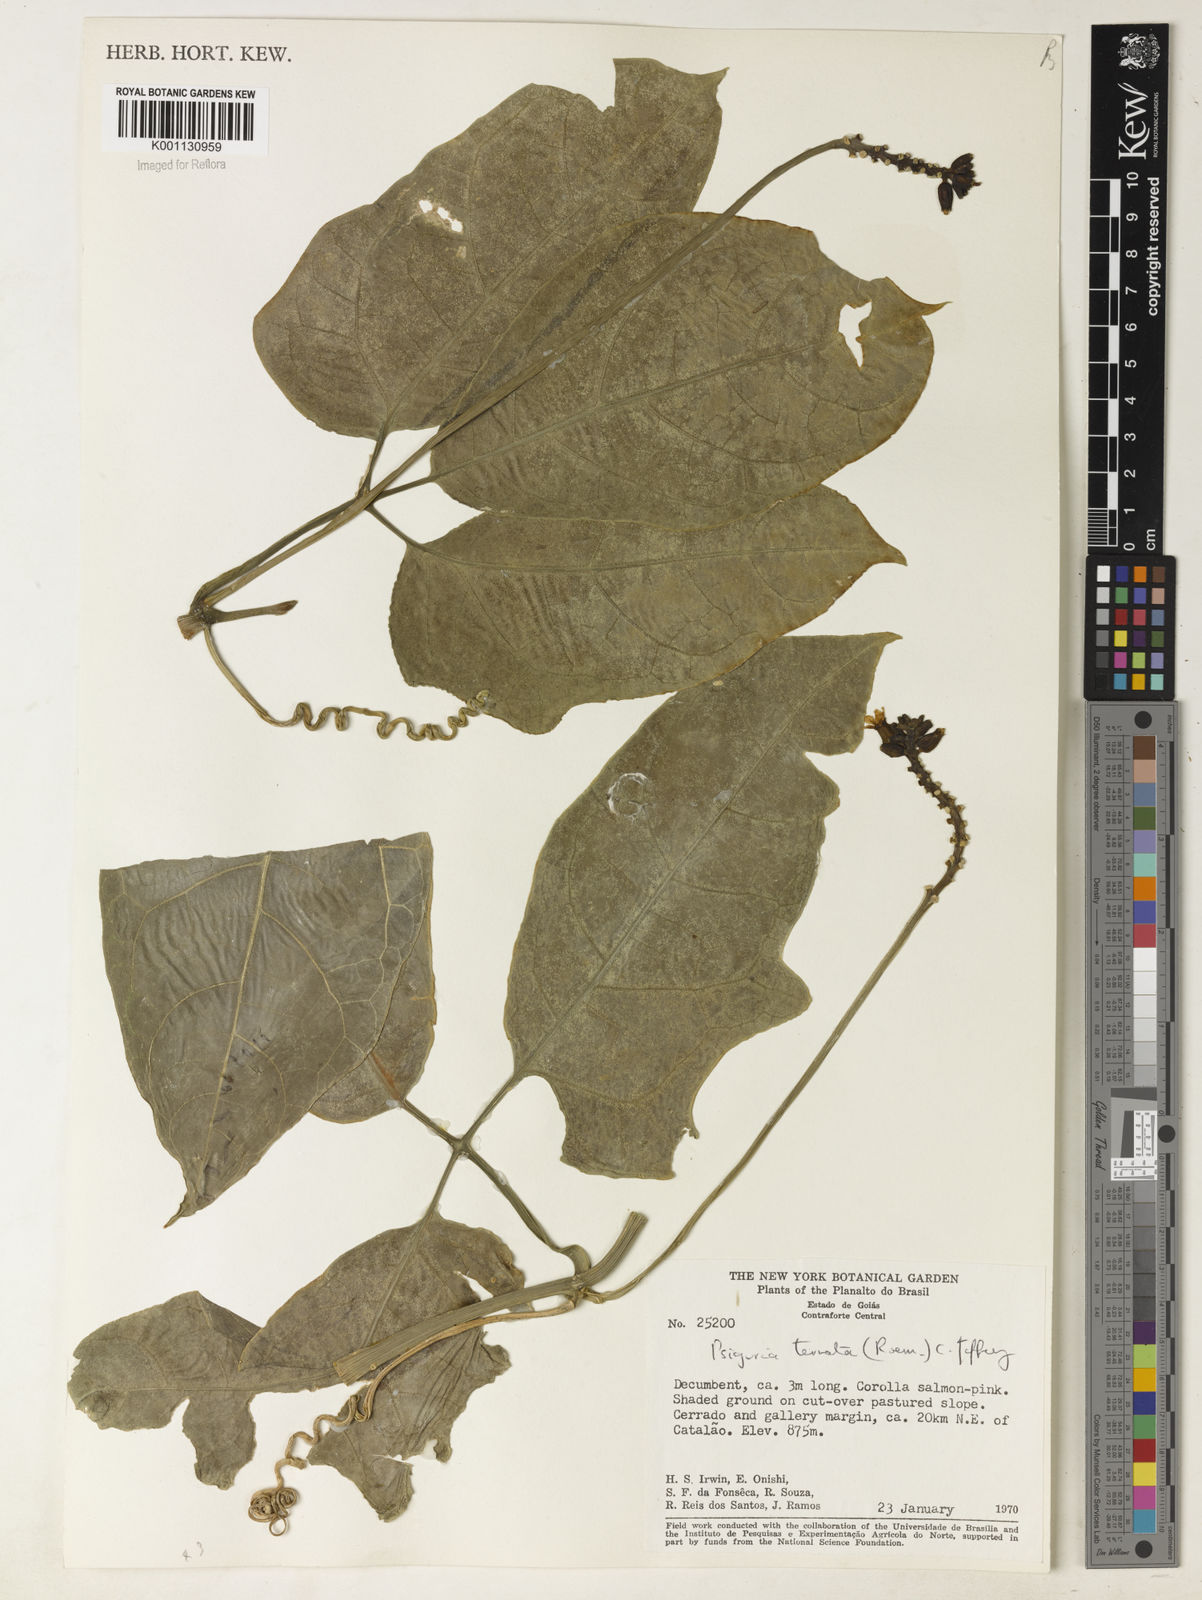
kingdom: Plantae
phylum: Tracheophyta
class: Magnoliopsida
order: Cucurbitales
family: Cucurbitaceae
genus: Psiguria
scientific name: Psiguria ternata
